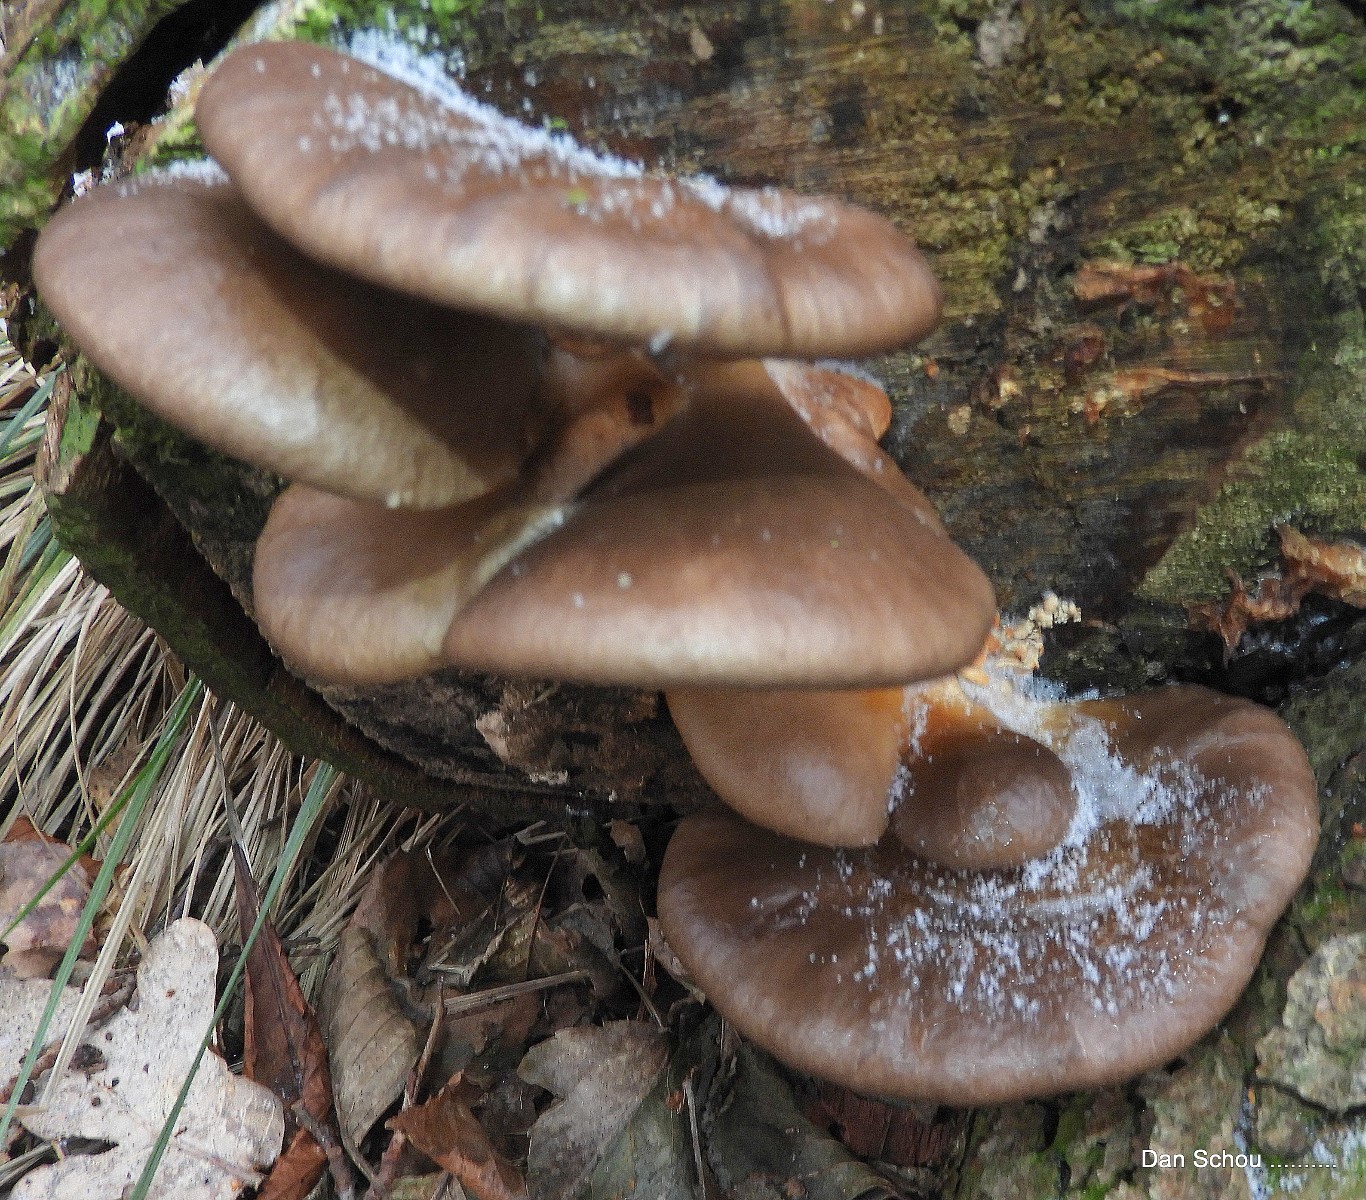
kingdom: Fungi
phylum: Basidiomycota
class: Agaricomycetes
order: Agaricales
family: Pleurotaceae
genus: Pleurotus
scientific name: Pleurotus ostreatus
